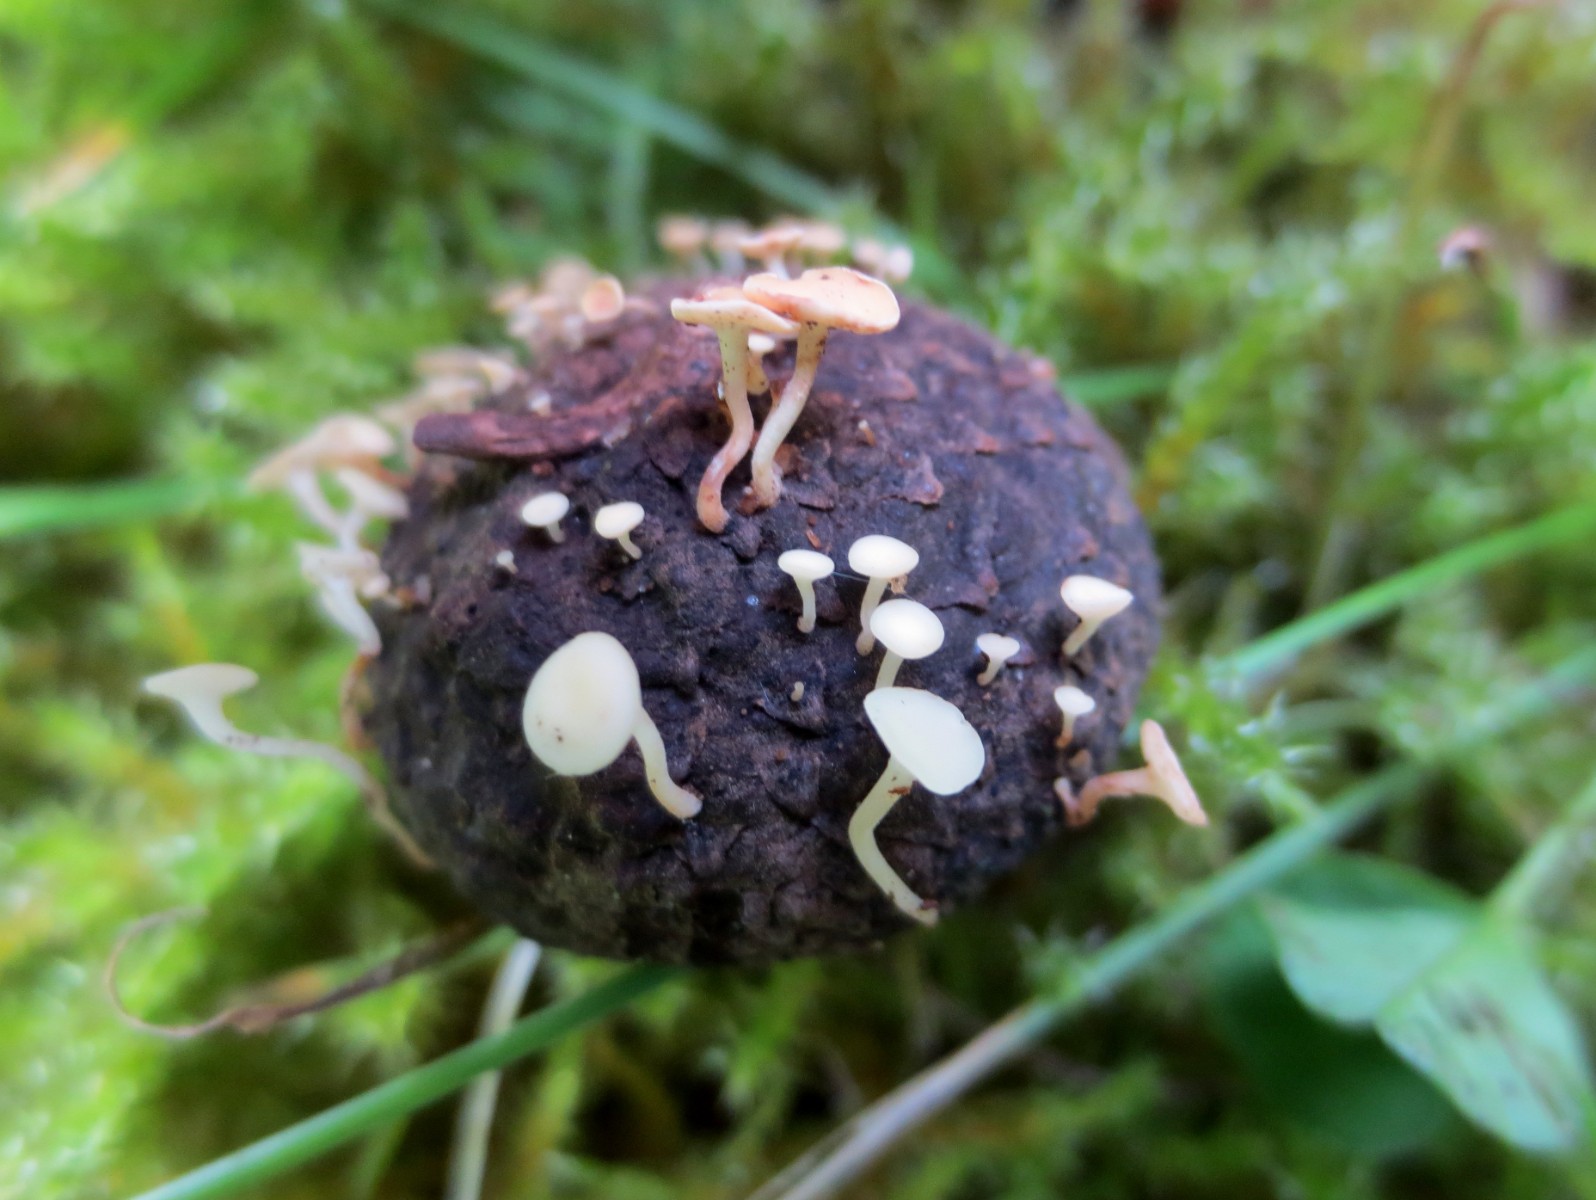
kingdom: Fungi
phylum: Ascomycota
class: Leotiomycetes
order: Helotiales
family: Helotiaceae
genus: Hymenoscyphus
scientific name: Hymenoscyphus fructigenus
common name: frugt-stilkskive
